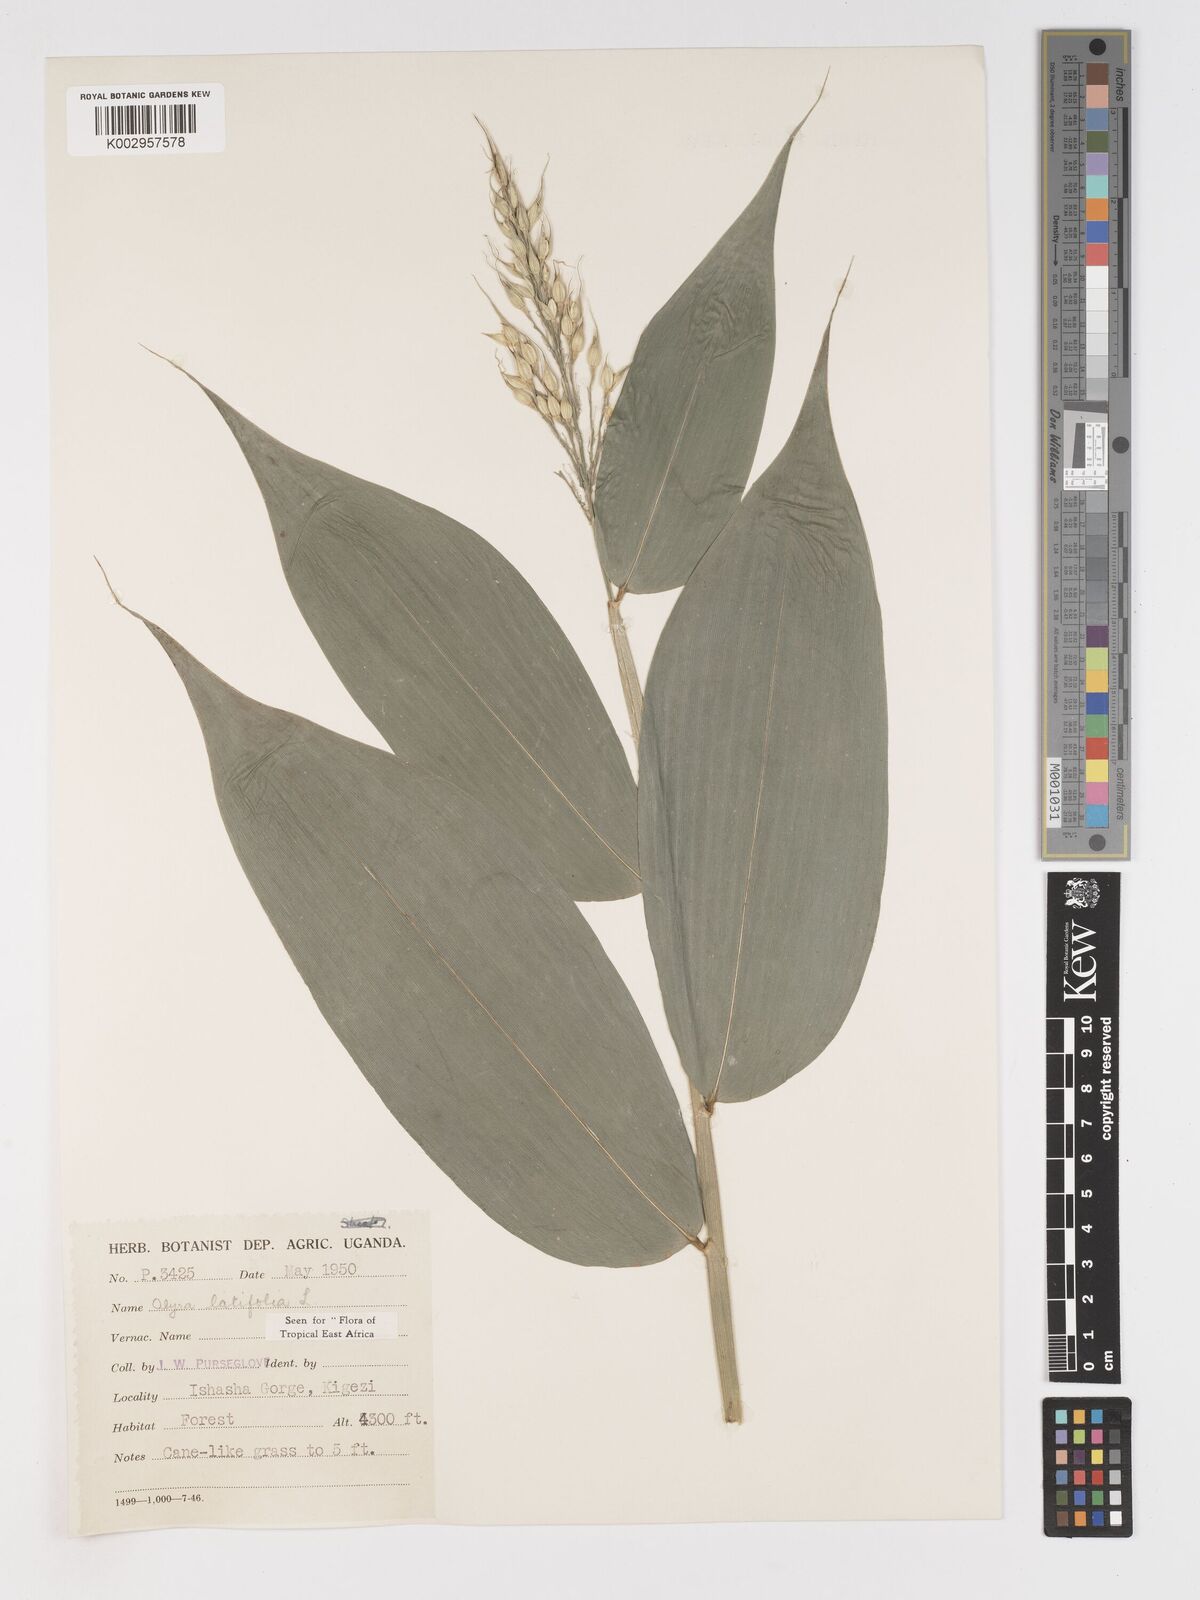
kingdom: Plantae
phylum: Tracheophyta
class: Liliopsida
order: Poales
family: Poaceae
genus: Olyra
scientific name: Olyra latifolia
